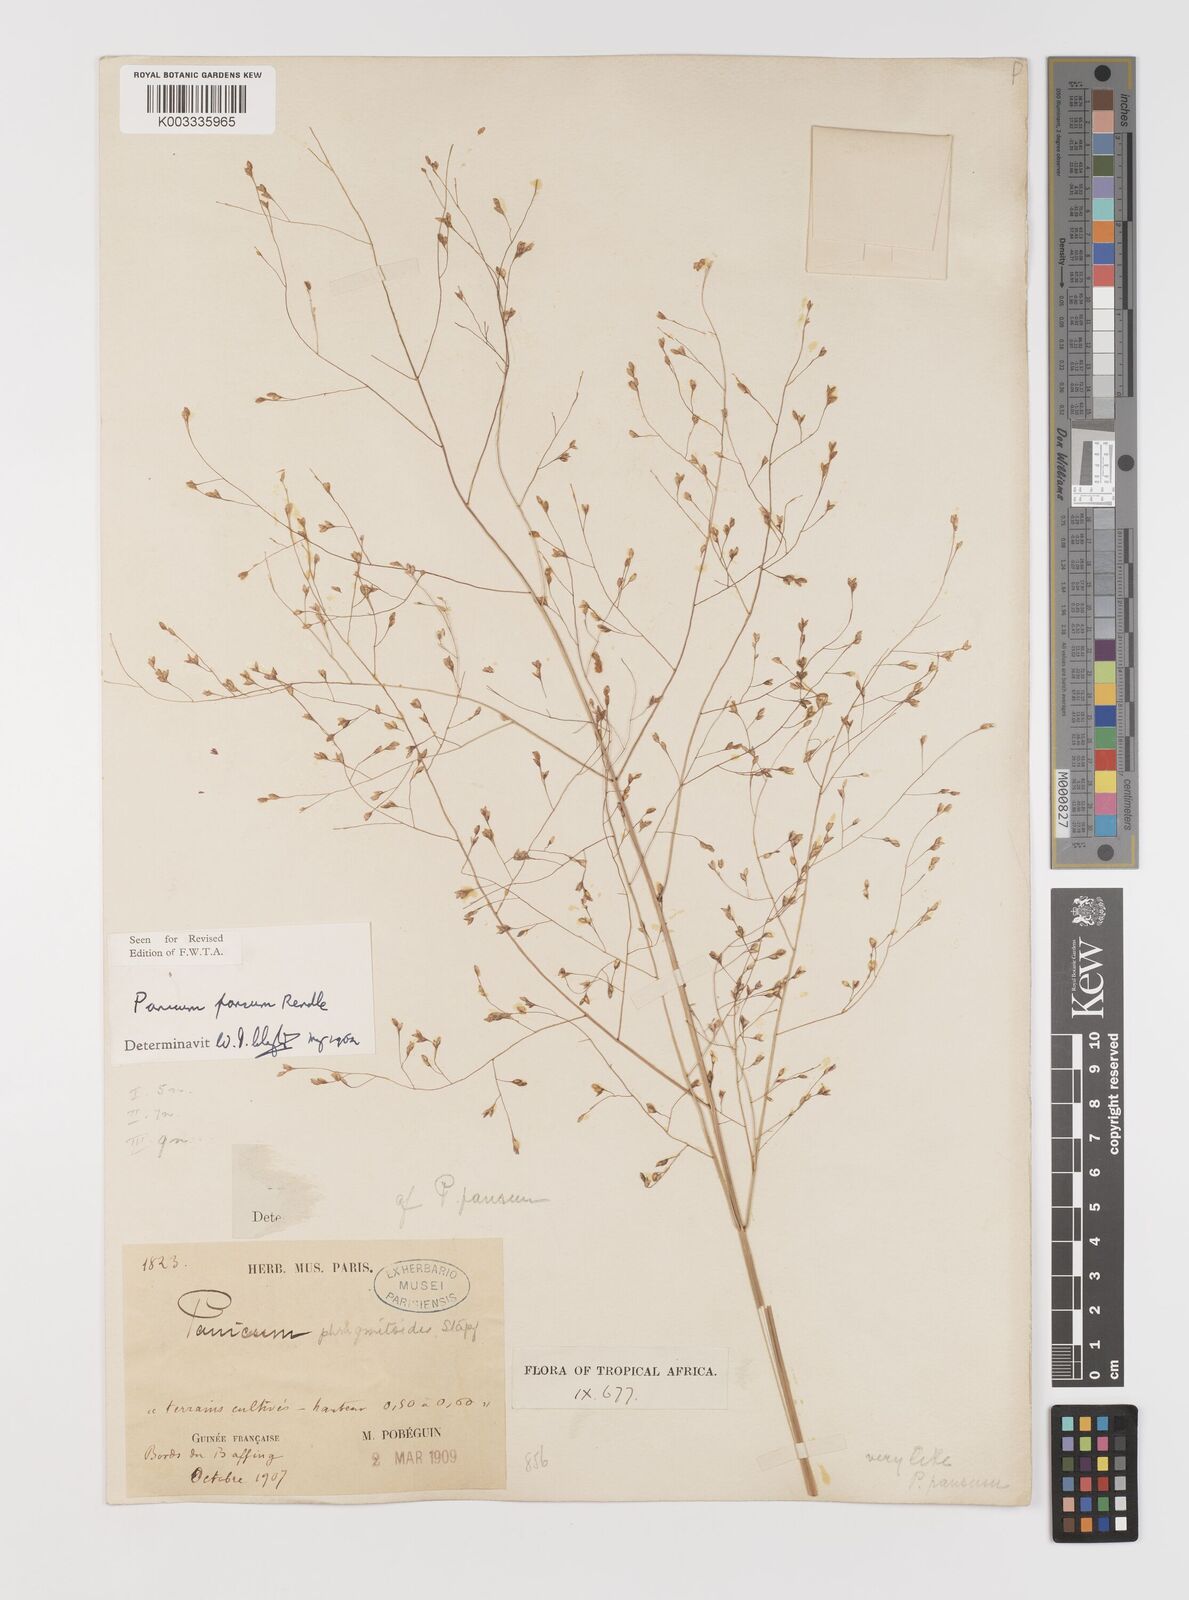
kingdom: Plantae
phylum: Tracheophyta
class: Liliopsida
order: Poales
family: Poaceae
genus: Panicum
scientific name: Panicum pansum
